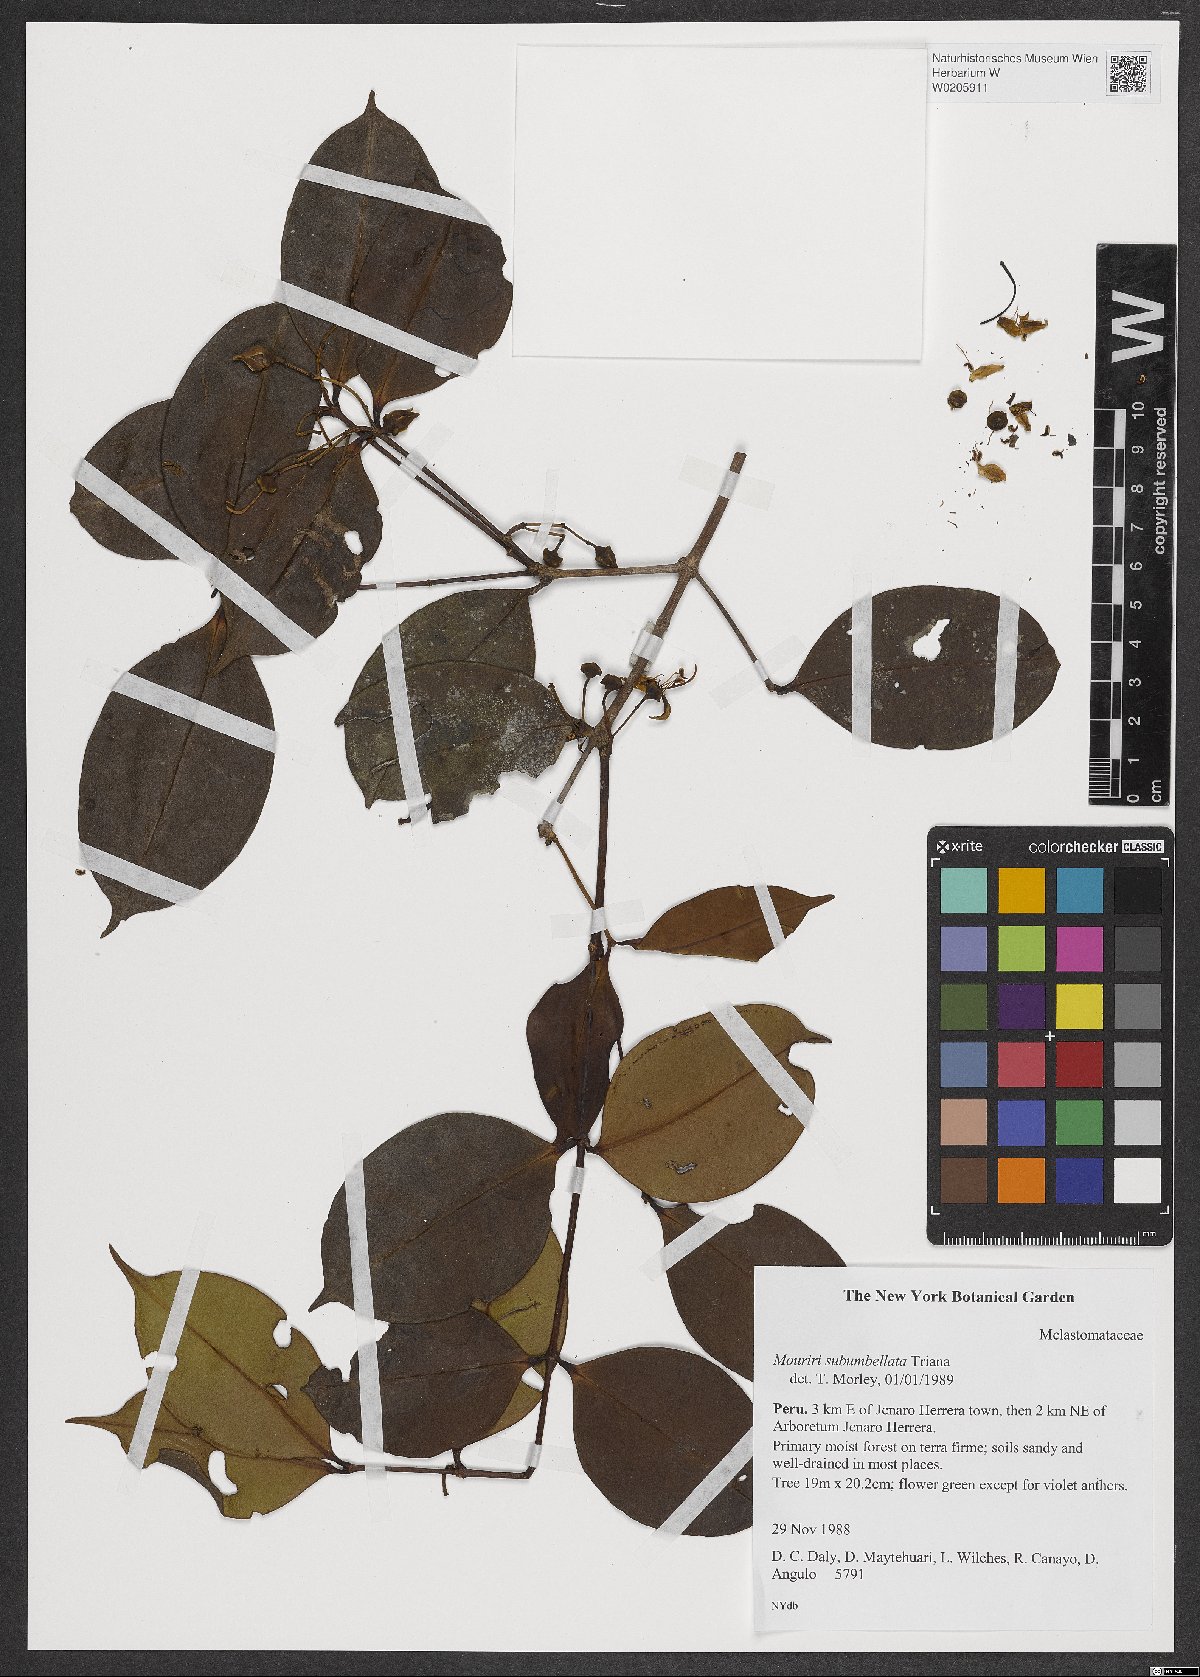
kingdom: Plantae
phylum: Tracheophyta
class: Magnoliopsida
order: Myrtales
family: Melastomataceae
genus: Mouriri
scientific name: Mouriri subumbellata
